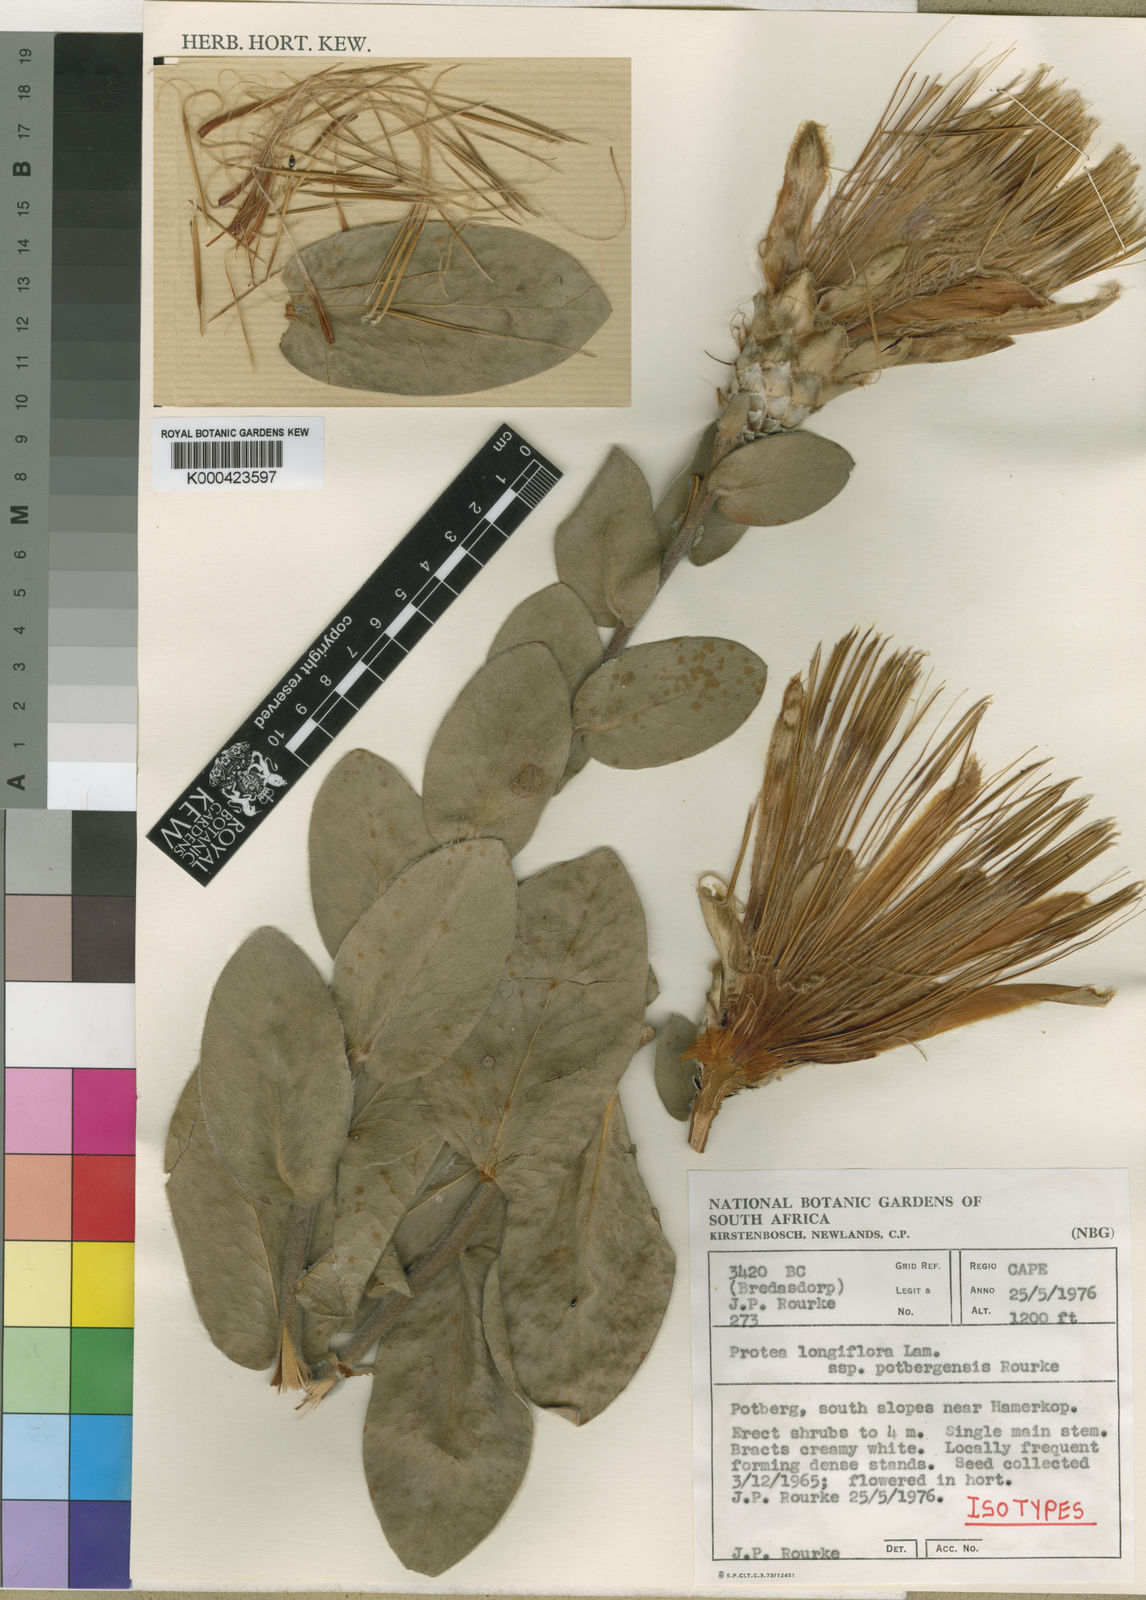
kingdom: Plantae
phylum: Tracheophyta
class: Magnoliopsida
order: Proteales
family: Proteaceae
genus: Protea
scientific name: Protea aurea
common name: Shuttlecock sugarbush
